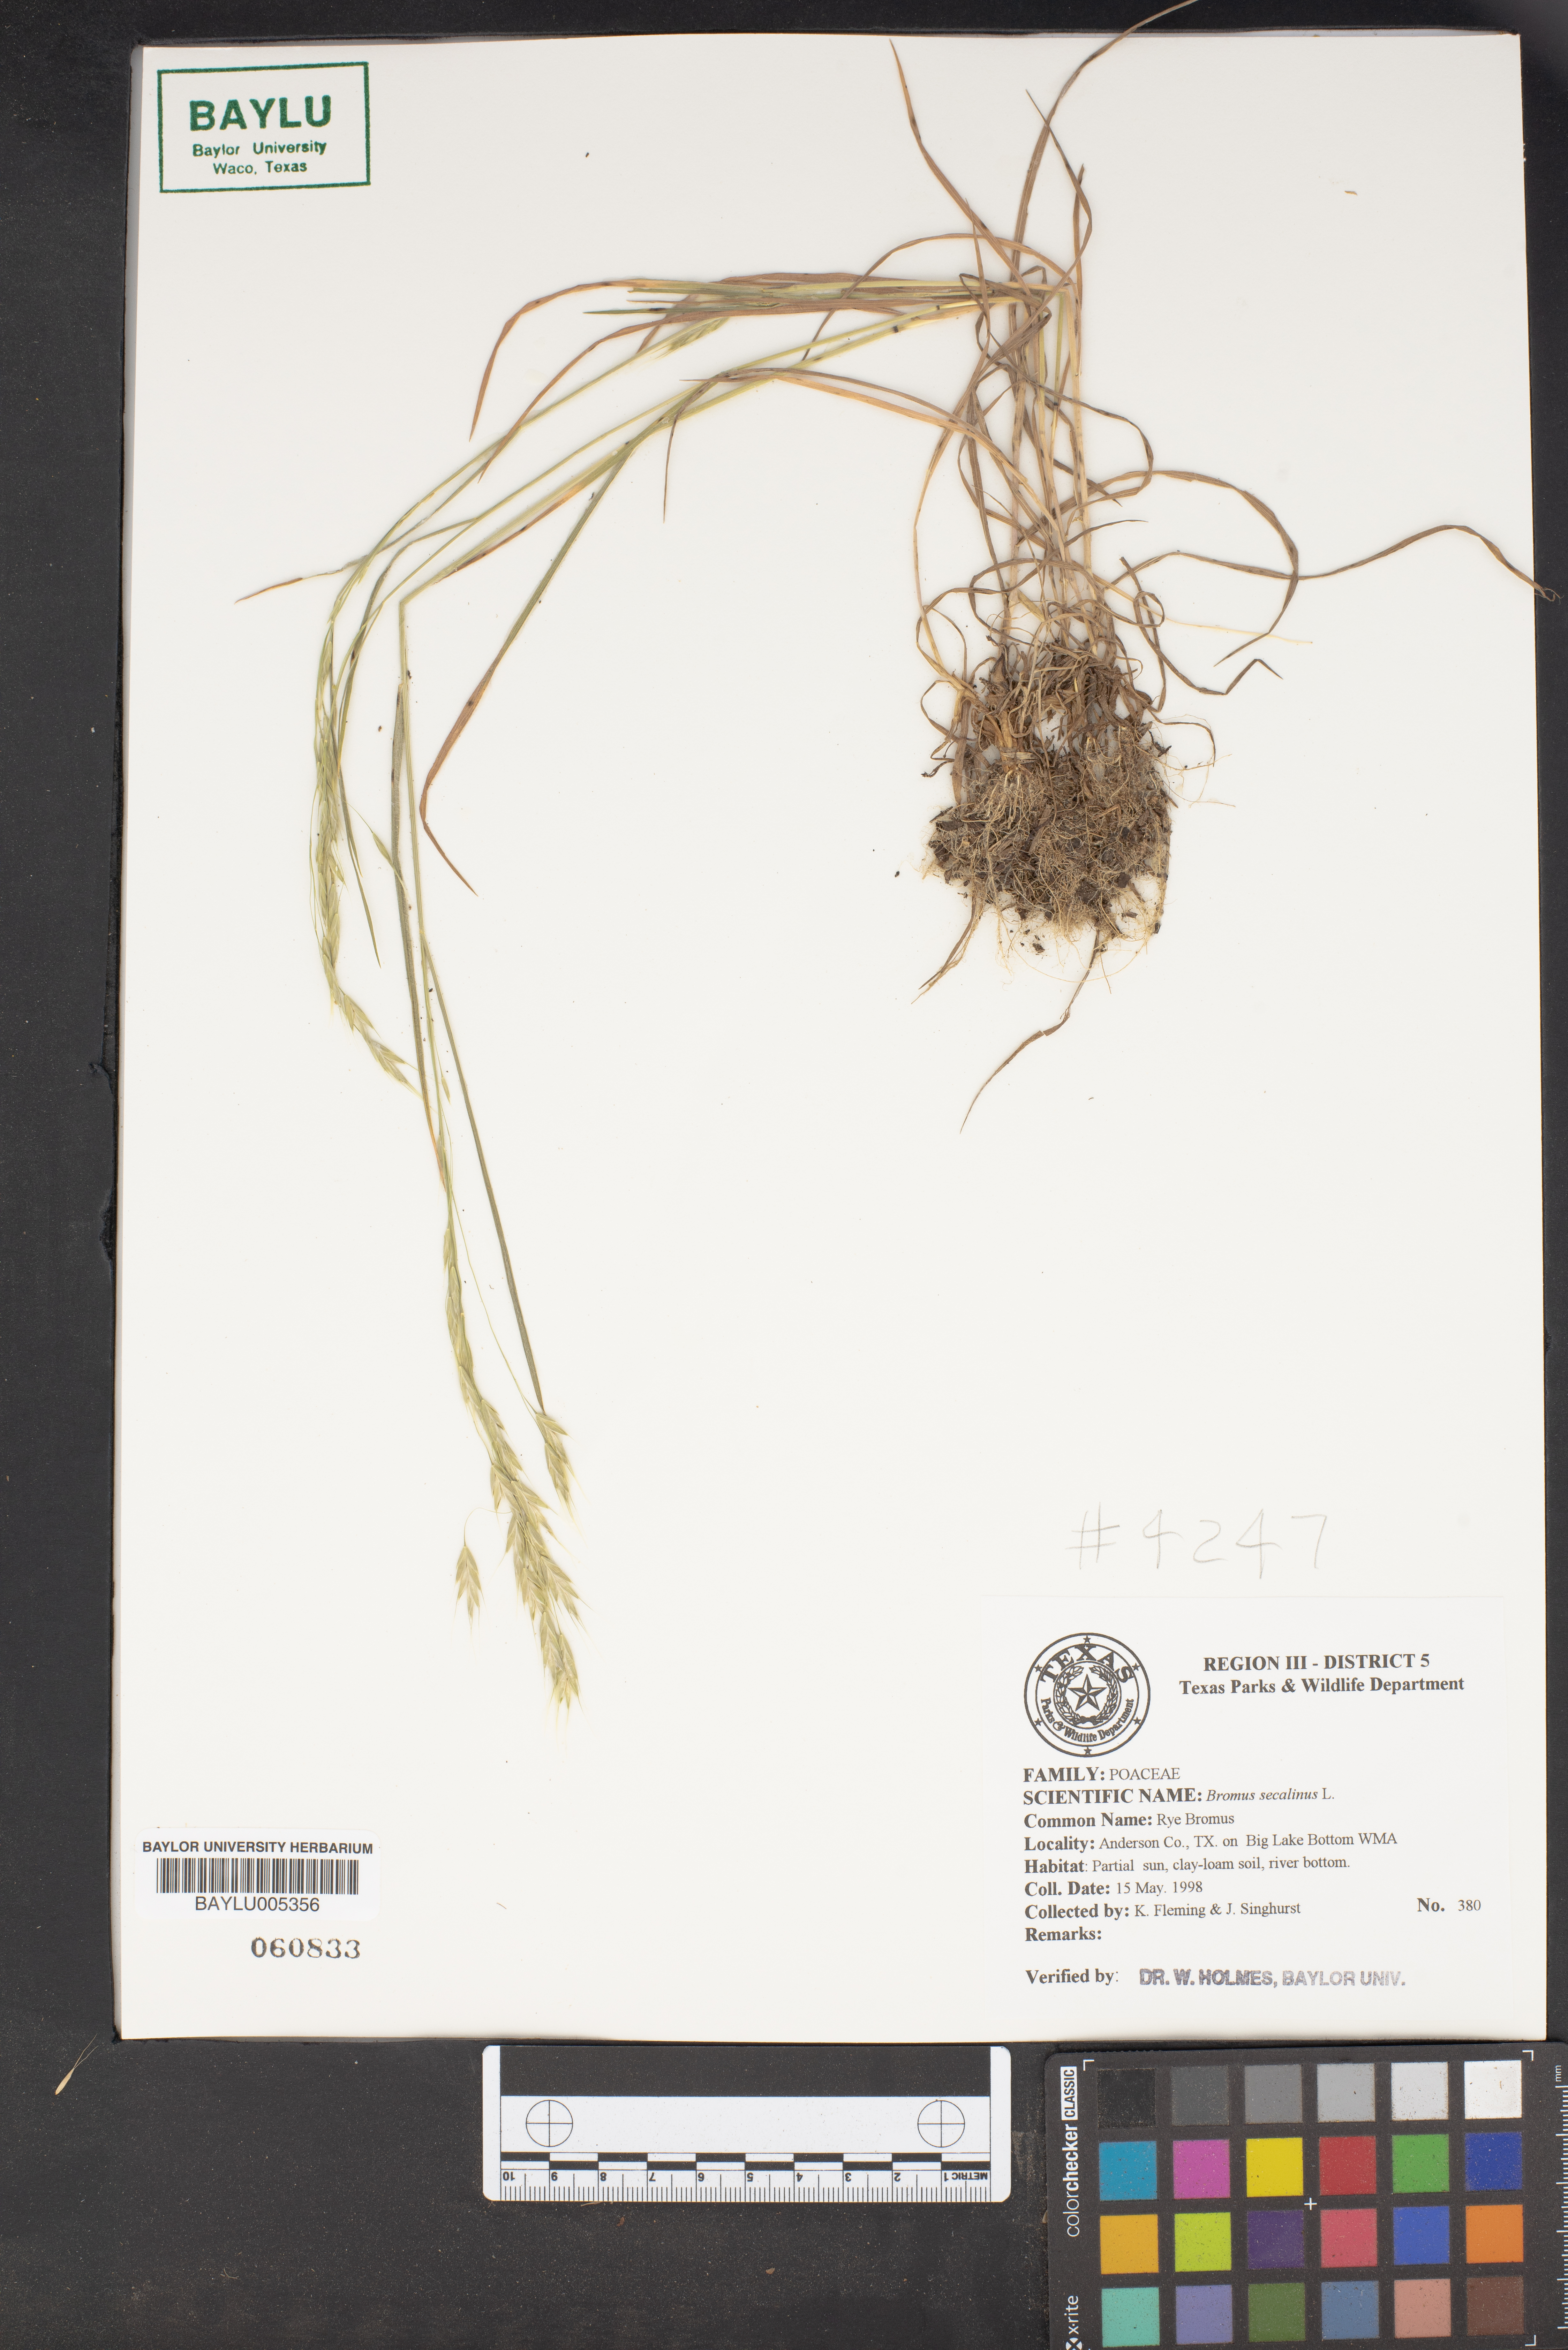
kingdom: Plantae
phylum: Tracheophyta
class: Liliopsida
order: Poales
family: Poaceae
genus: Bromus
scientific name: Bromus secalinus
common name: Rye brome
